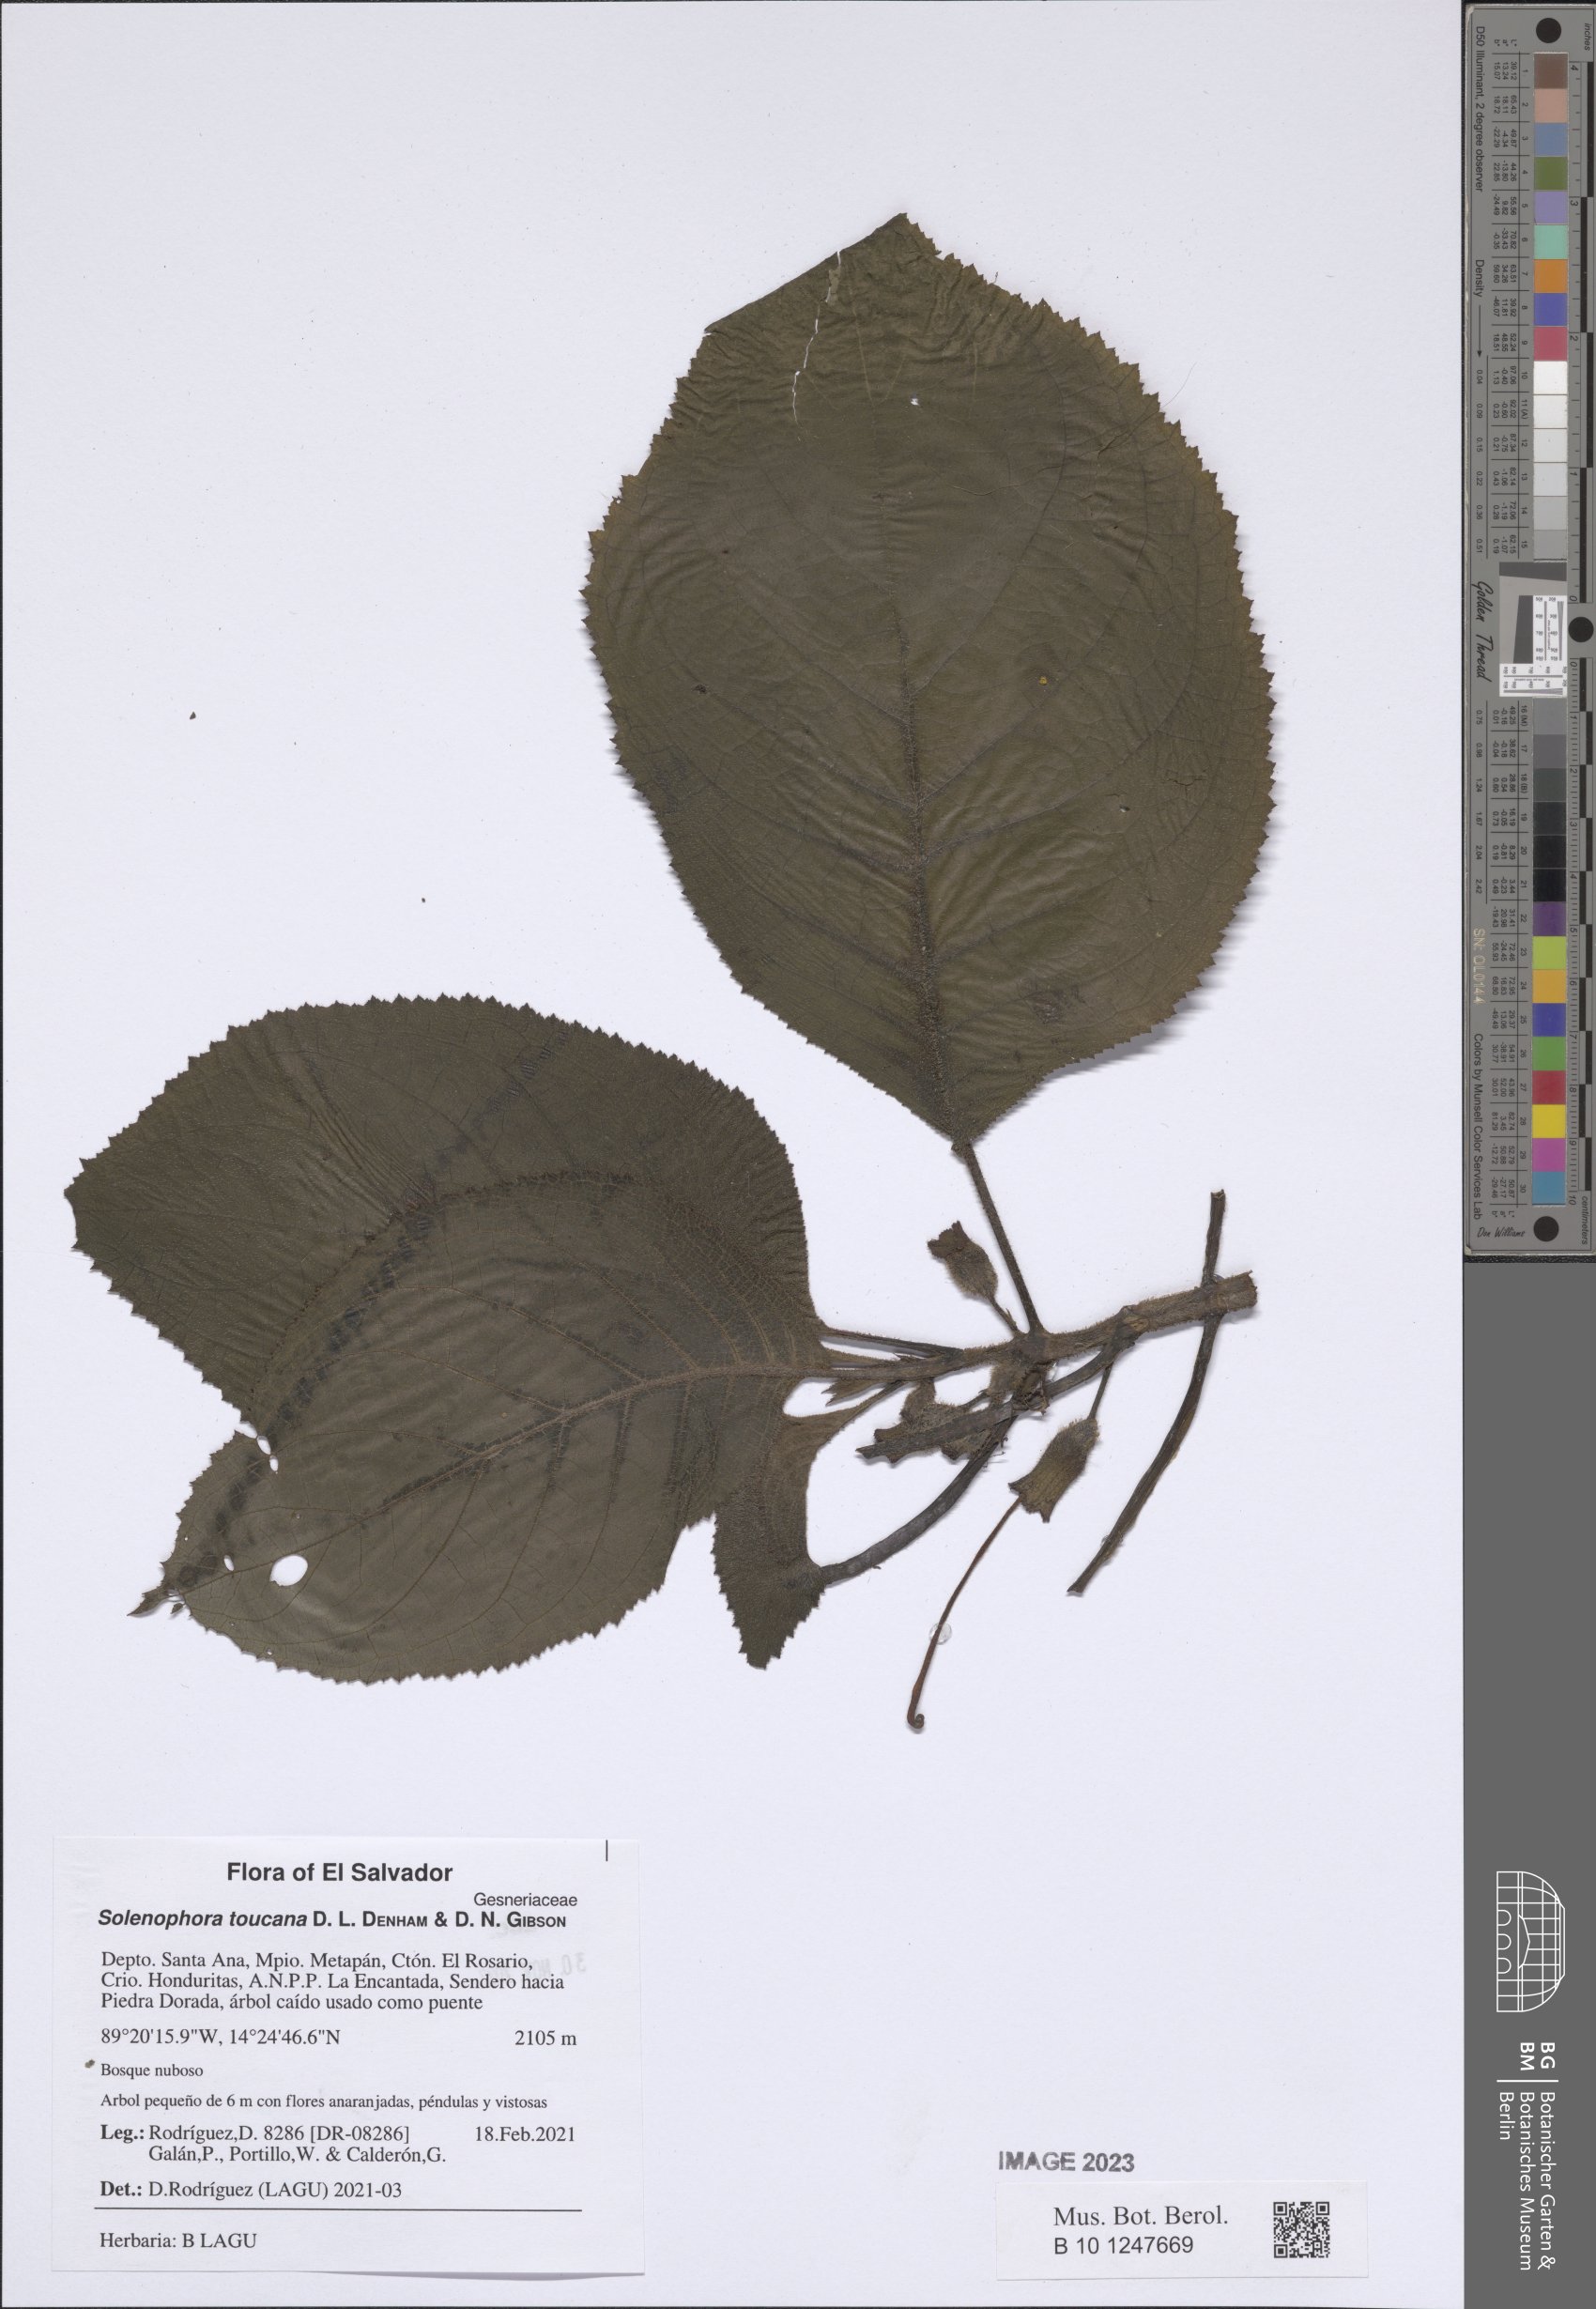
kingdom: Plantae
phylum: Tracheophyta
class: Magnoliopsida
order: Lamiales
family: Gesneriaceae
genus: Solenophora
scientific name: Solenophora calycosa
